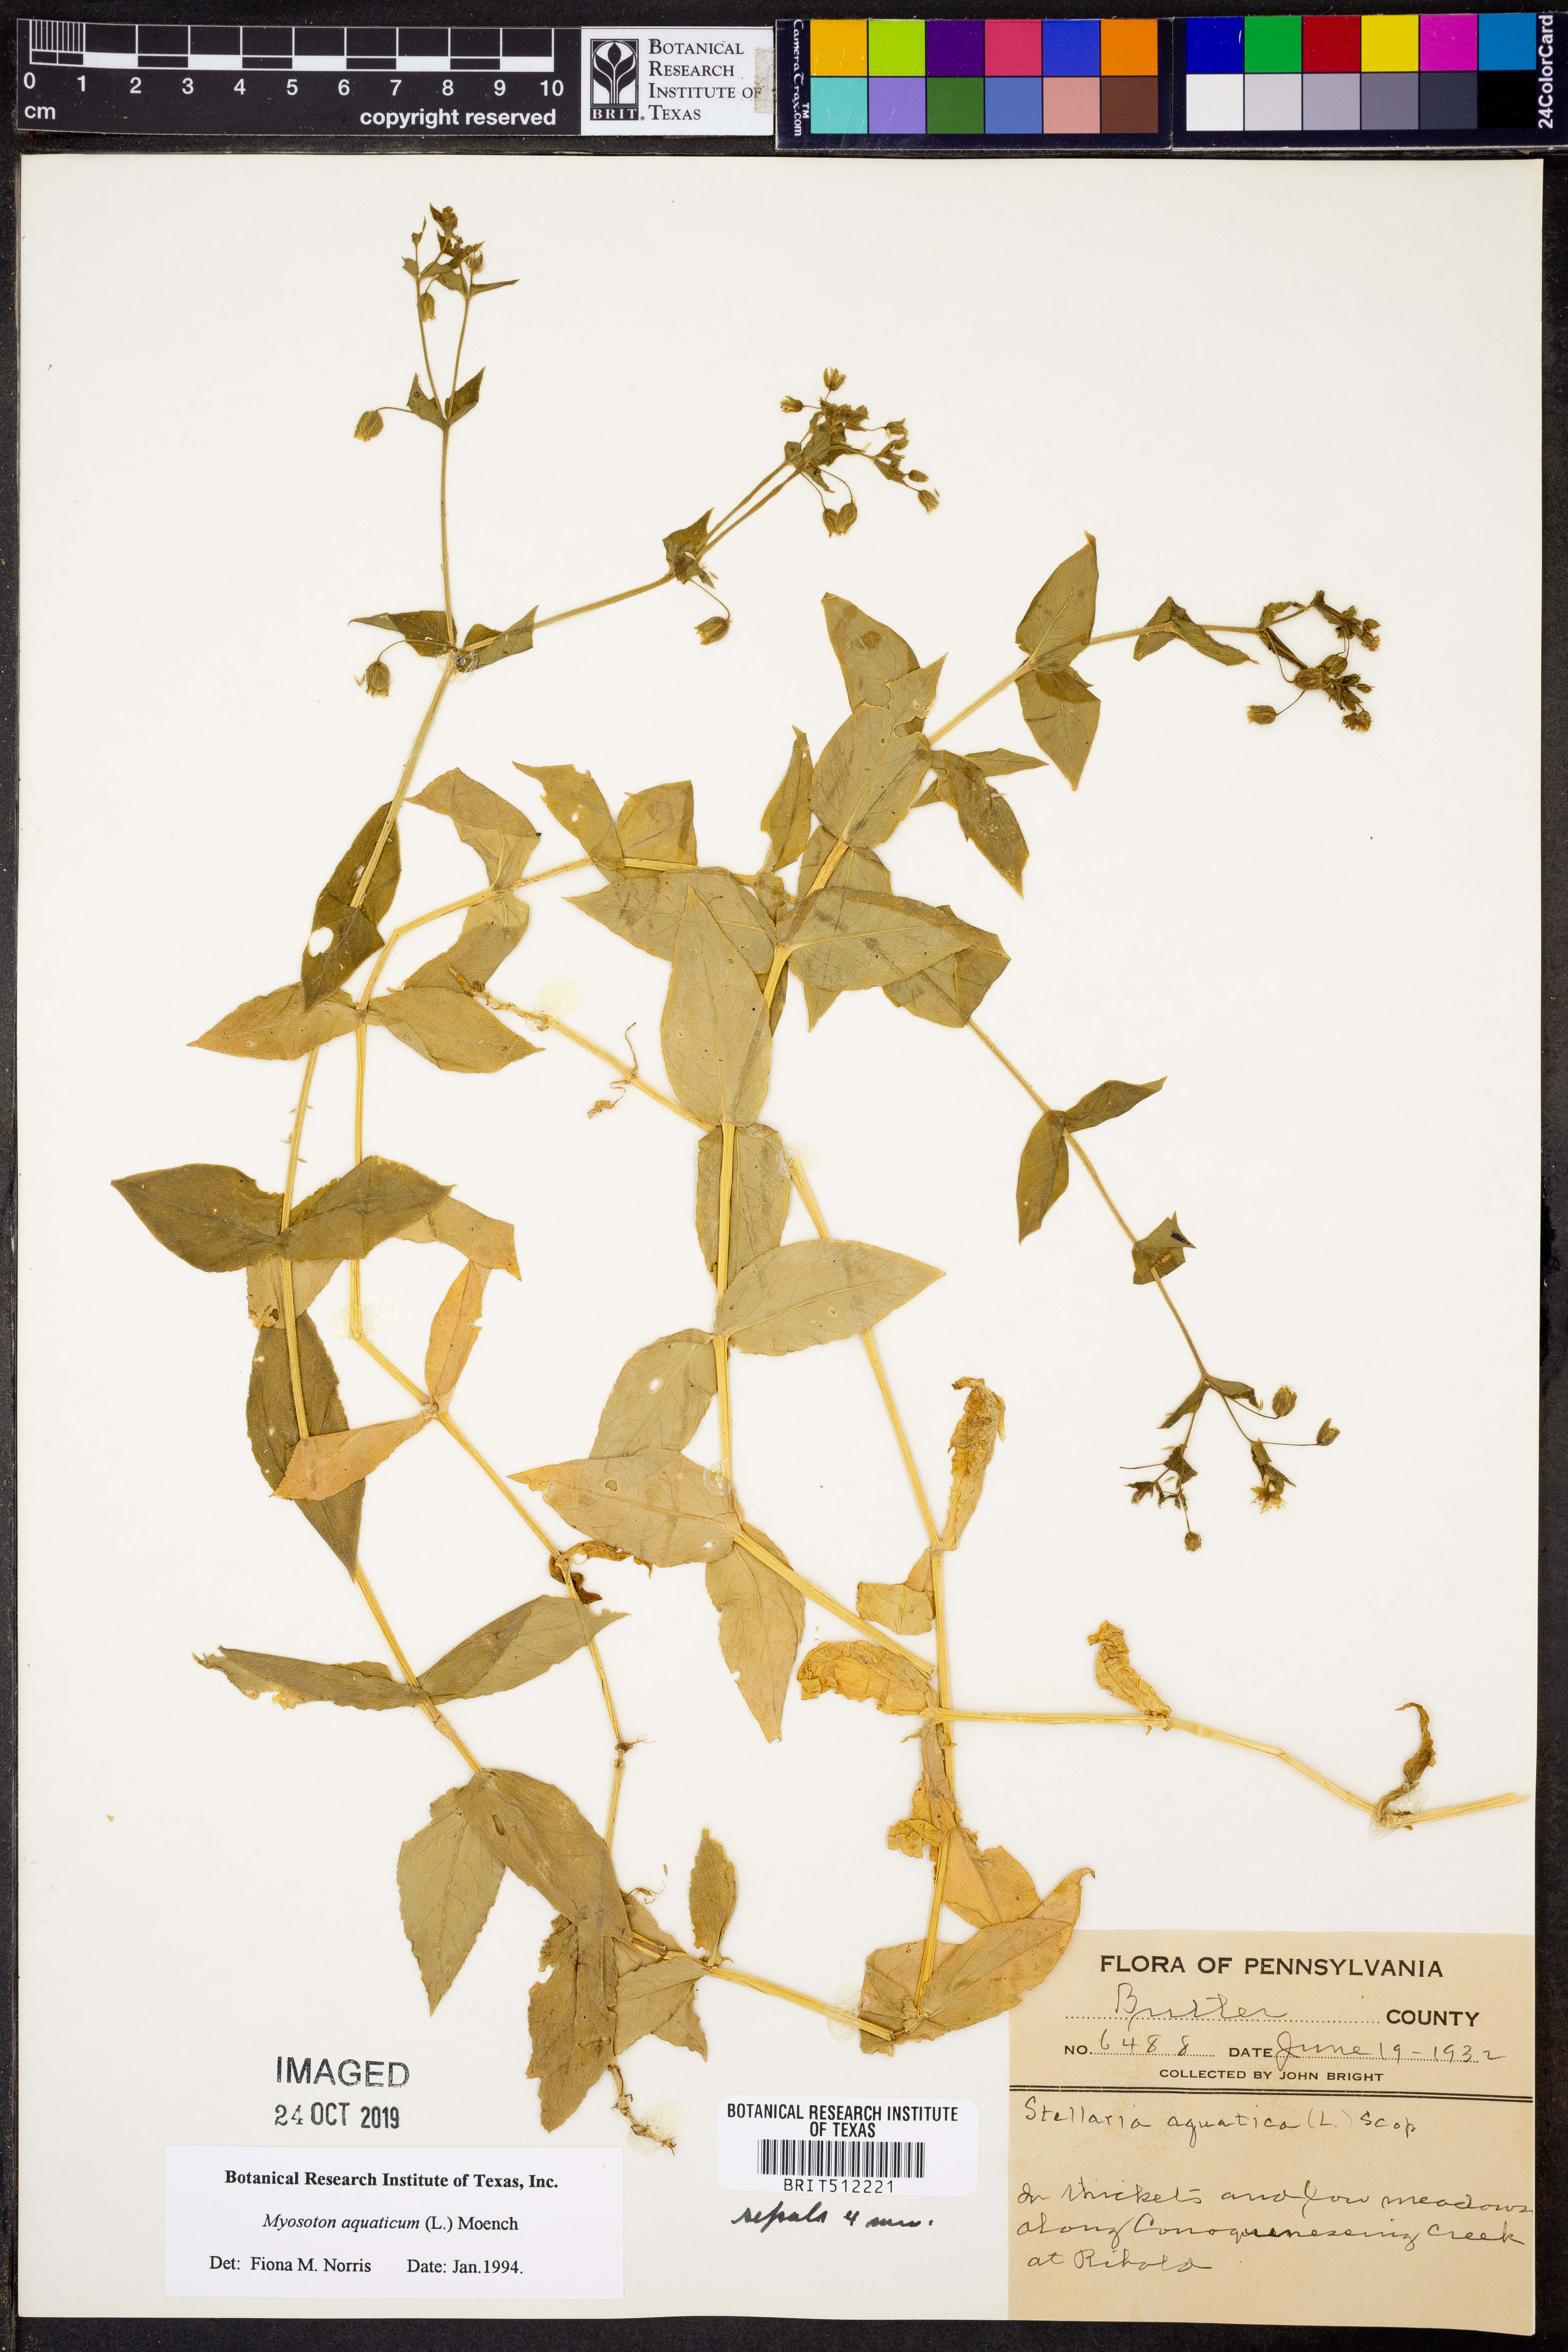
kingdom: Plantae
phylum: Tracheophyta
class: Magnoliopsida
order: Caryophyllales
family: Caryophyllaceae
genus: Stellaria
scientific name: Stellaria aquatica
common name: Water chickweed
